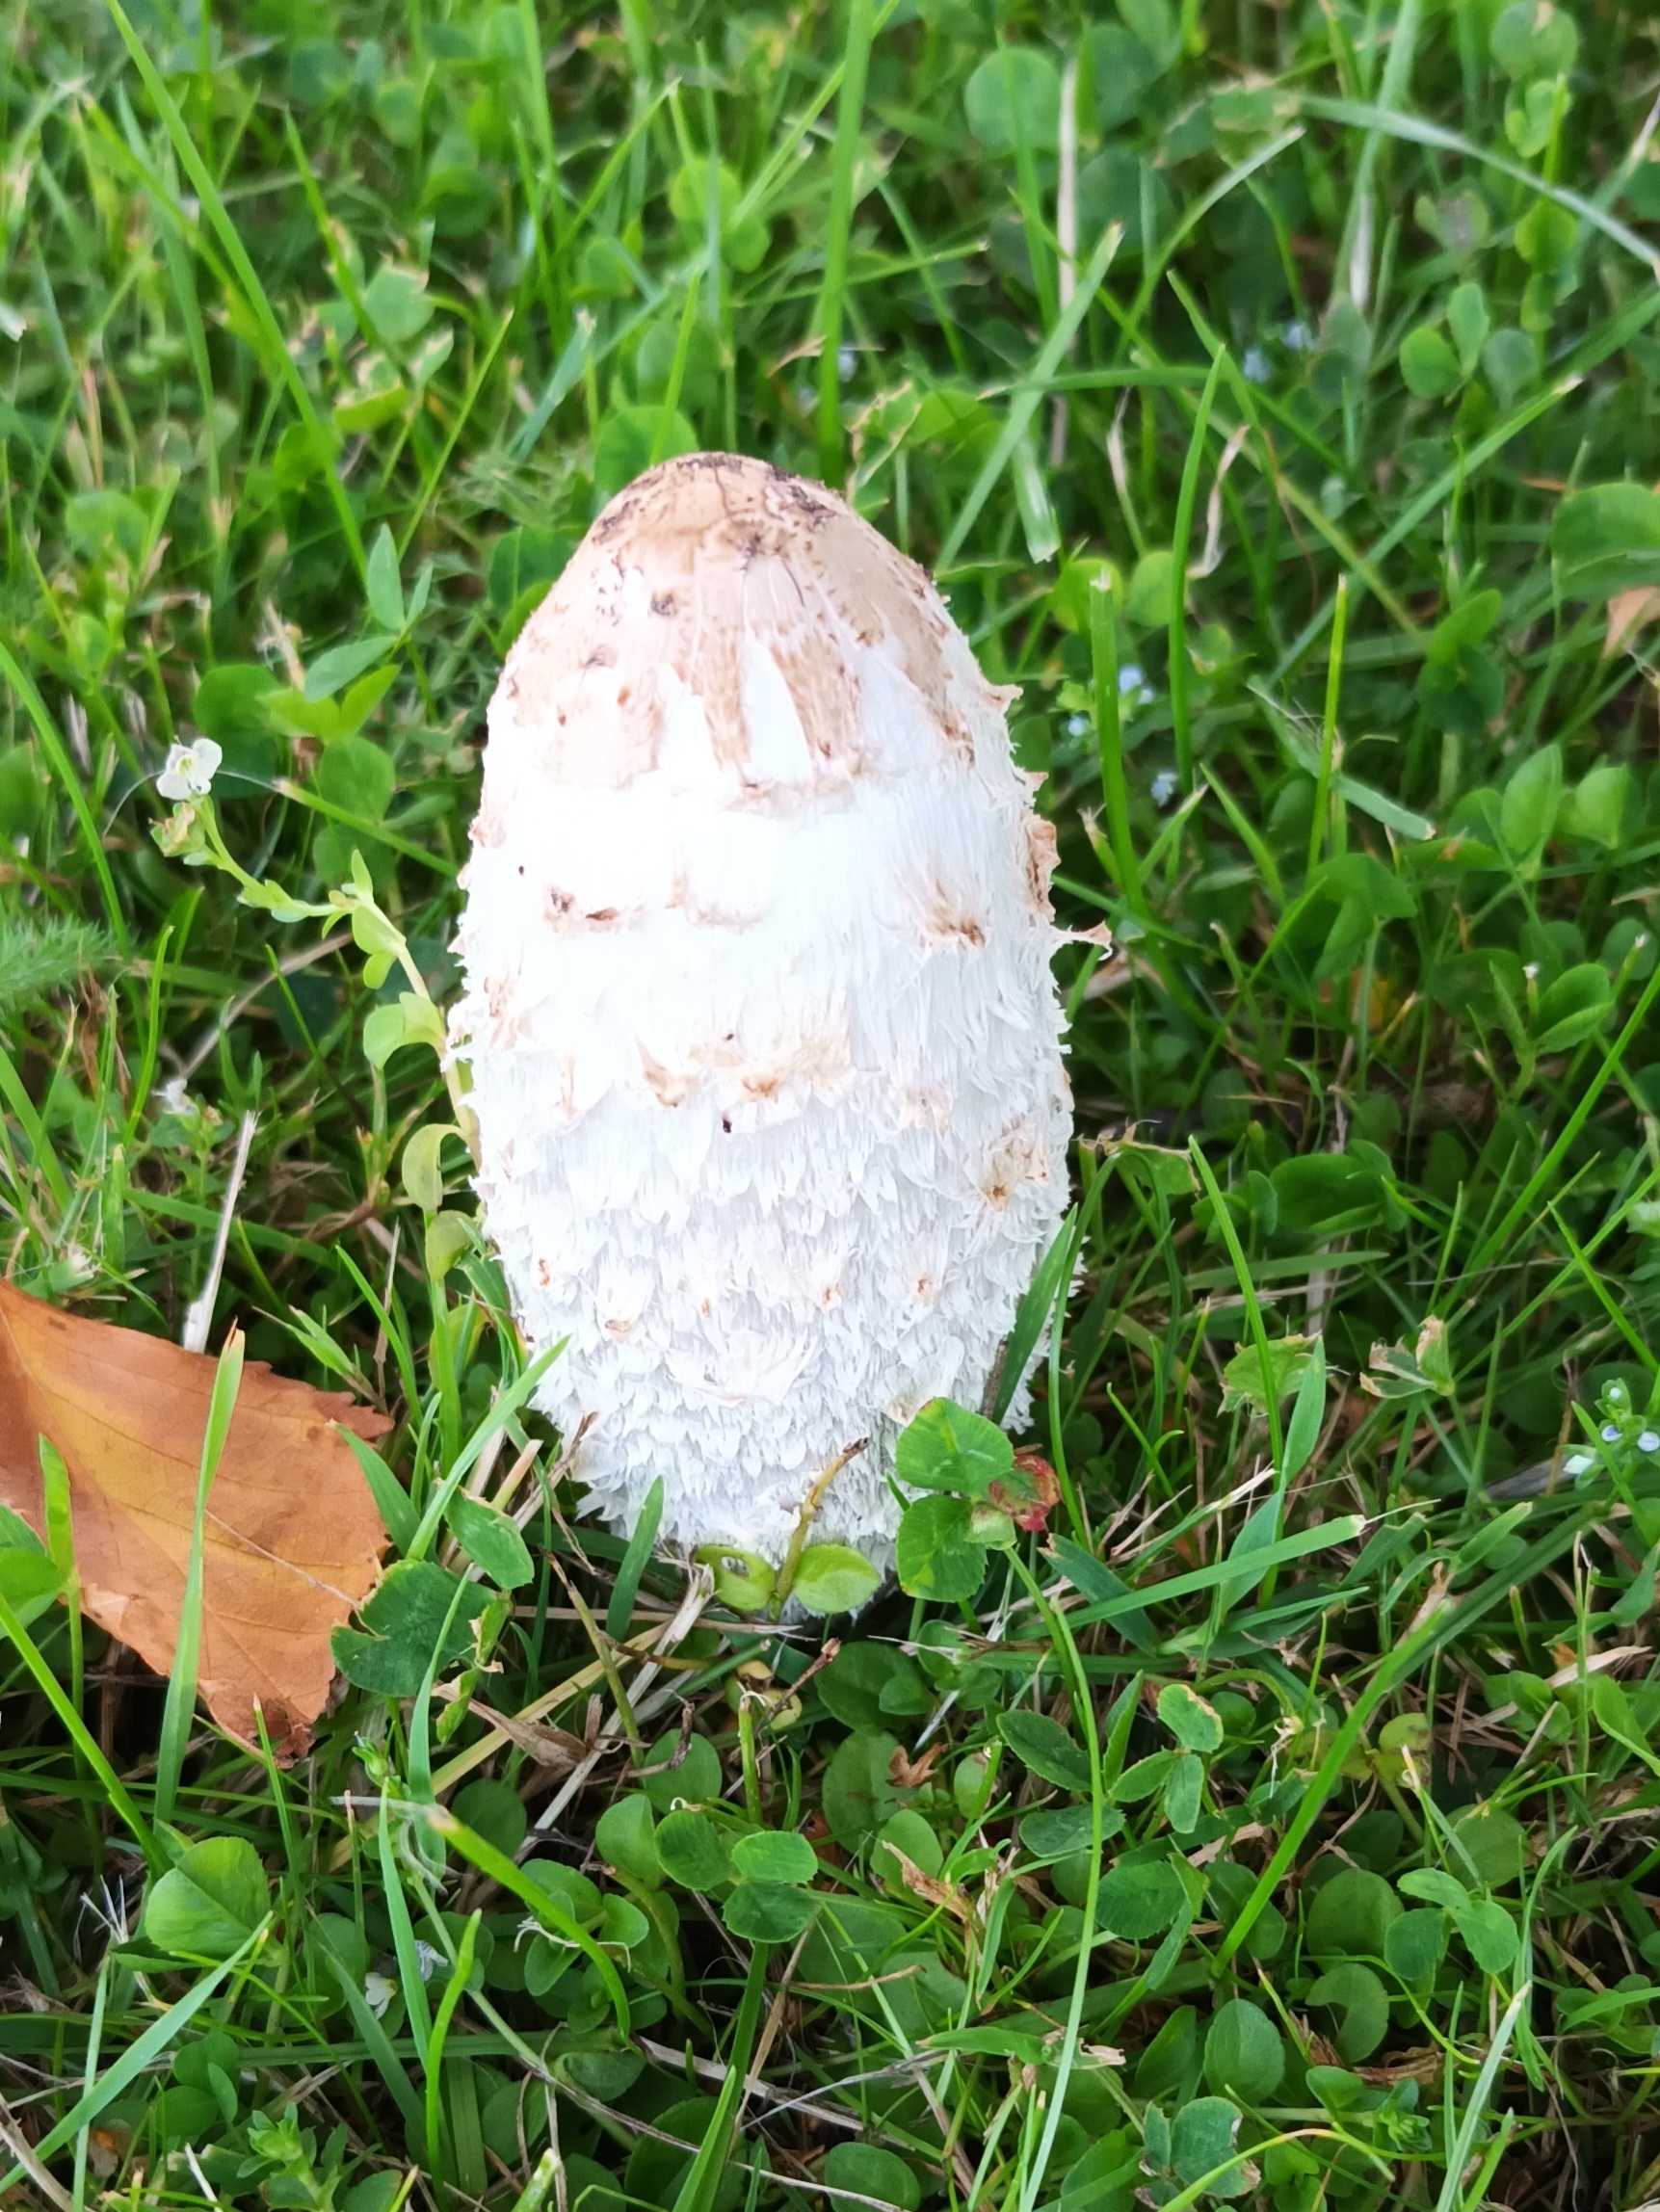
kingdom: Fungi
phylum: Basidiomycota
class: Agaricomycetes
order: Agaricales
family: Agaricaceae
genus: Coprinus
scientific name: Coprinus comatus
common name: Stor parykhat
